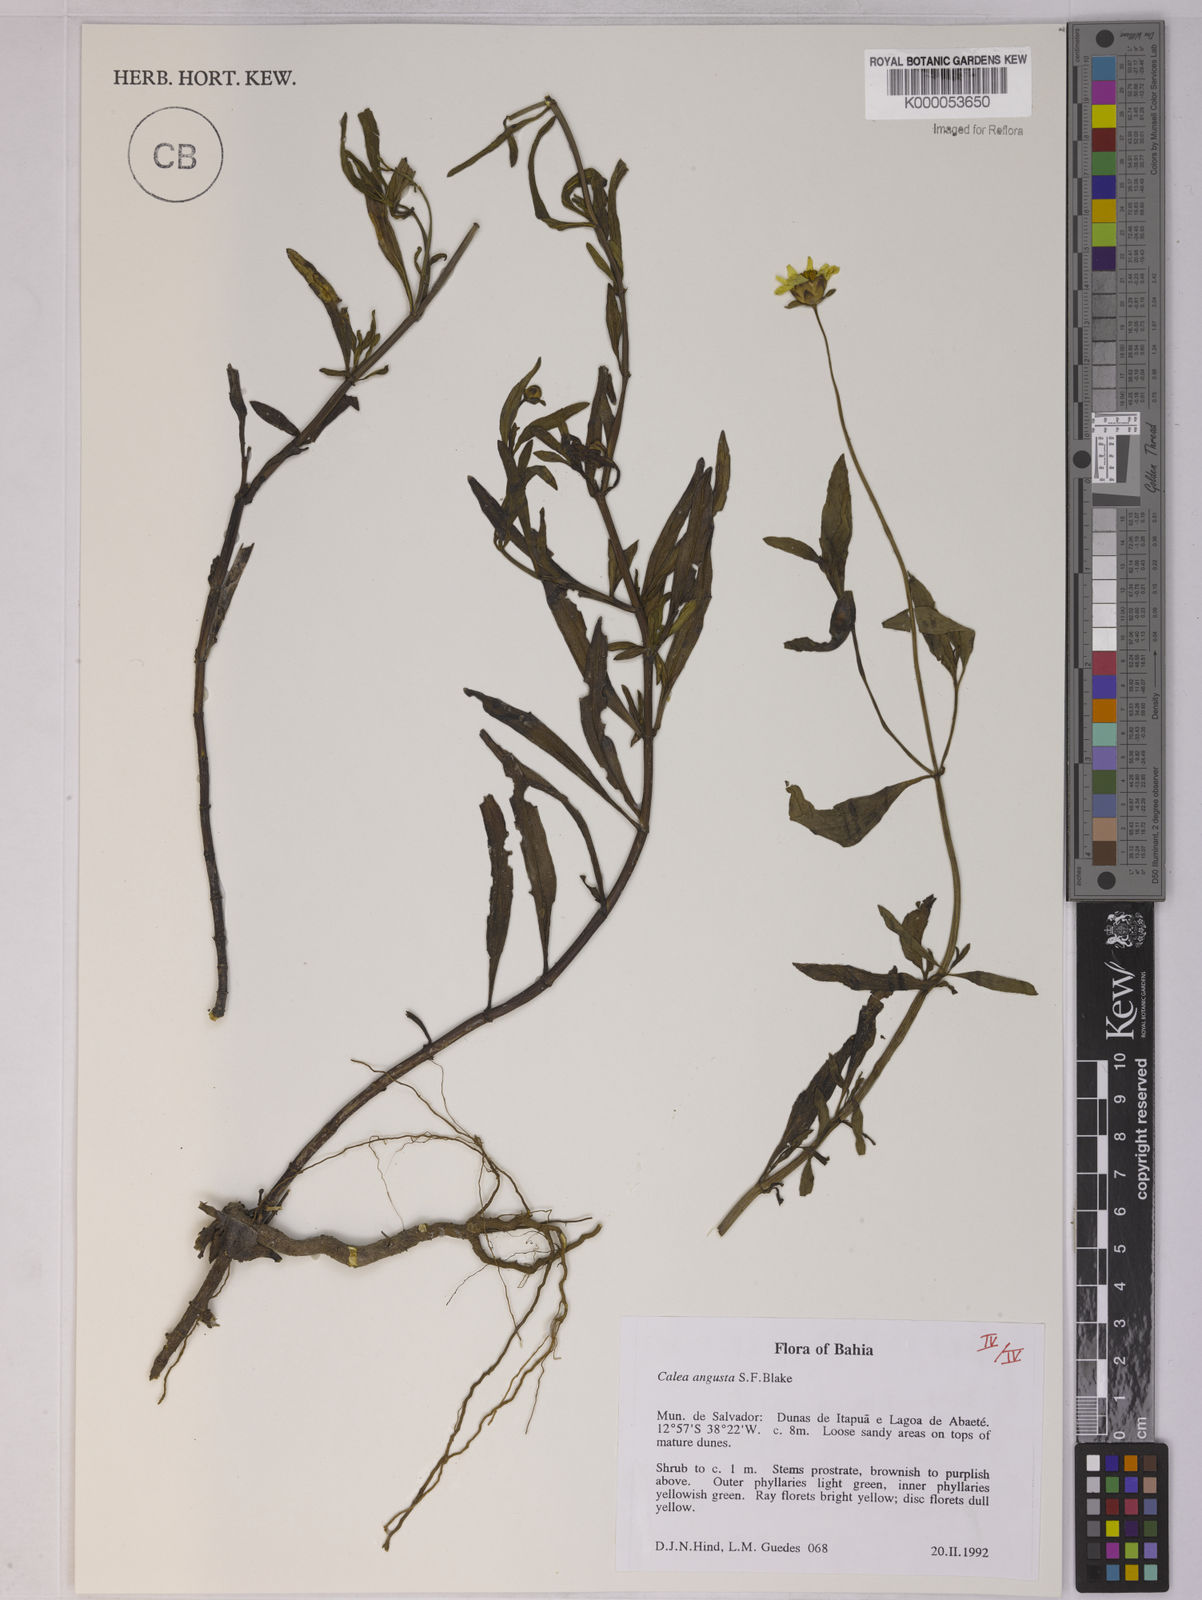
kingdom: Plantae
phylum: Tracheophyta
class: Magnoliopsida
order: Asterales
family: Asteraceae
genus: Calea
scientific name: Calea angusta
